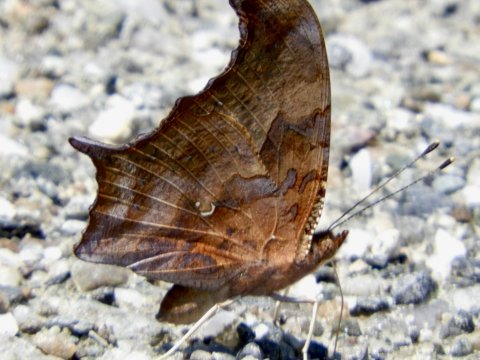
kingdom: Animalia
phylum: Arthropoda
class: Insecta
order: Lepidoptera
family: Nymphalidae
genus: Polygonia
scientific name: Polygonia interrogationis
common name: Question Mark
